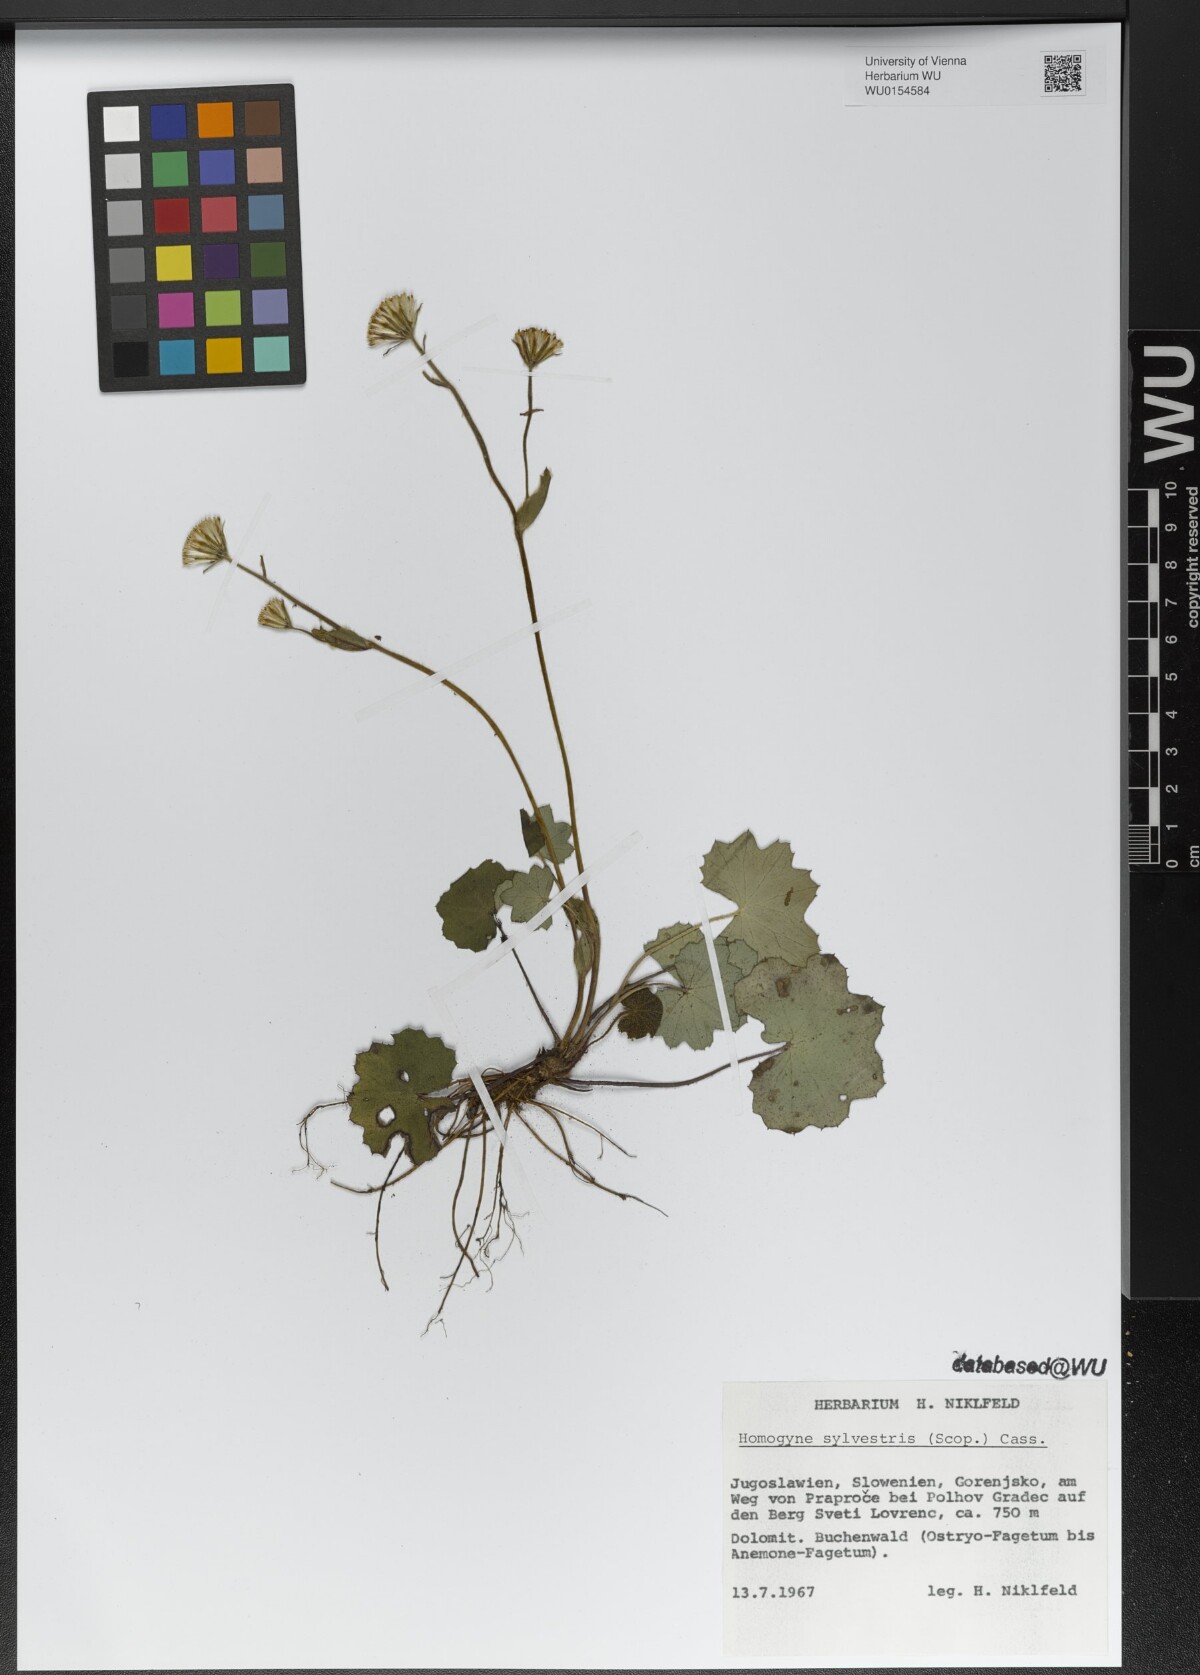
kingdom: Plantae
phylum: Tracheophyta
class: Magnoliopsida
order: Asterales
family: Asteraceae
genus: Homogyne
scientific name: Homogyne sylvestris
